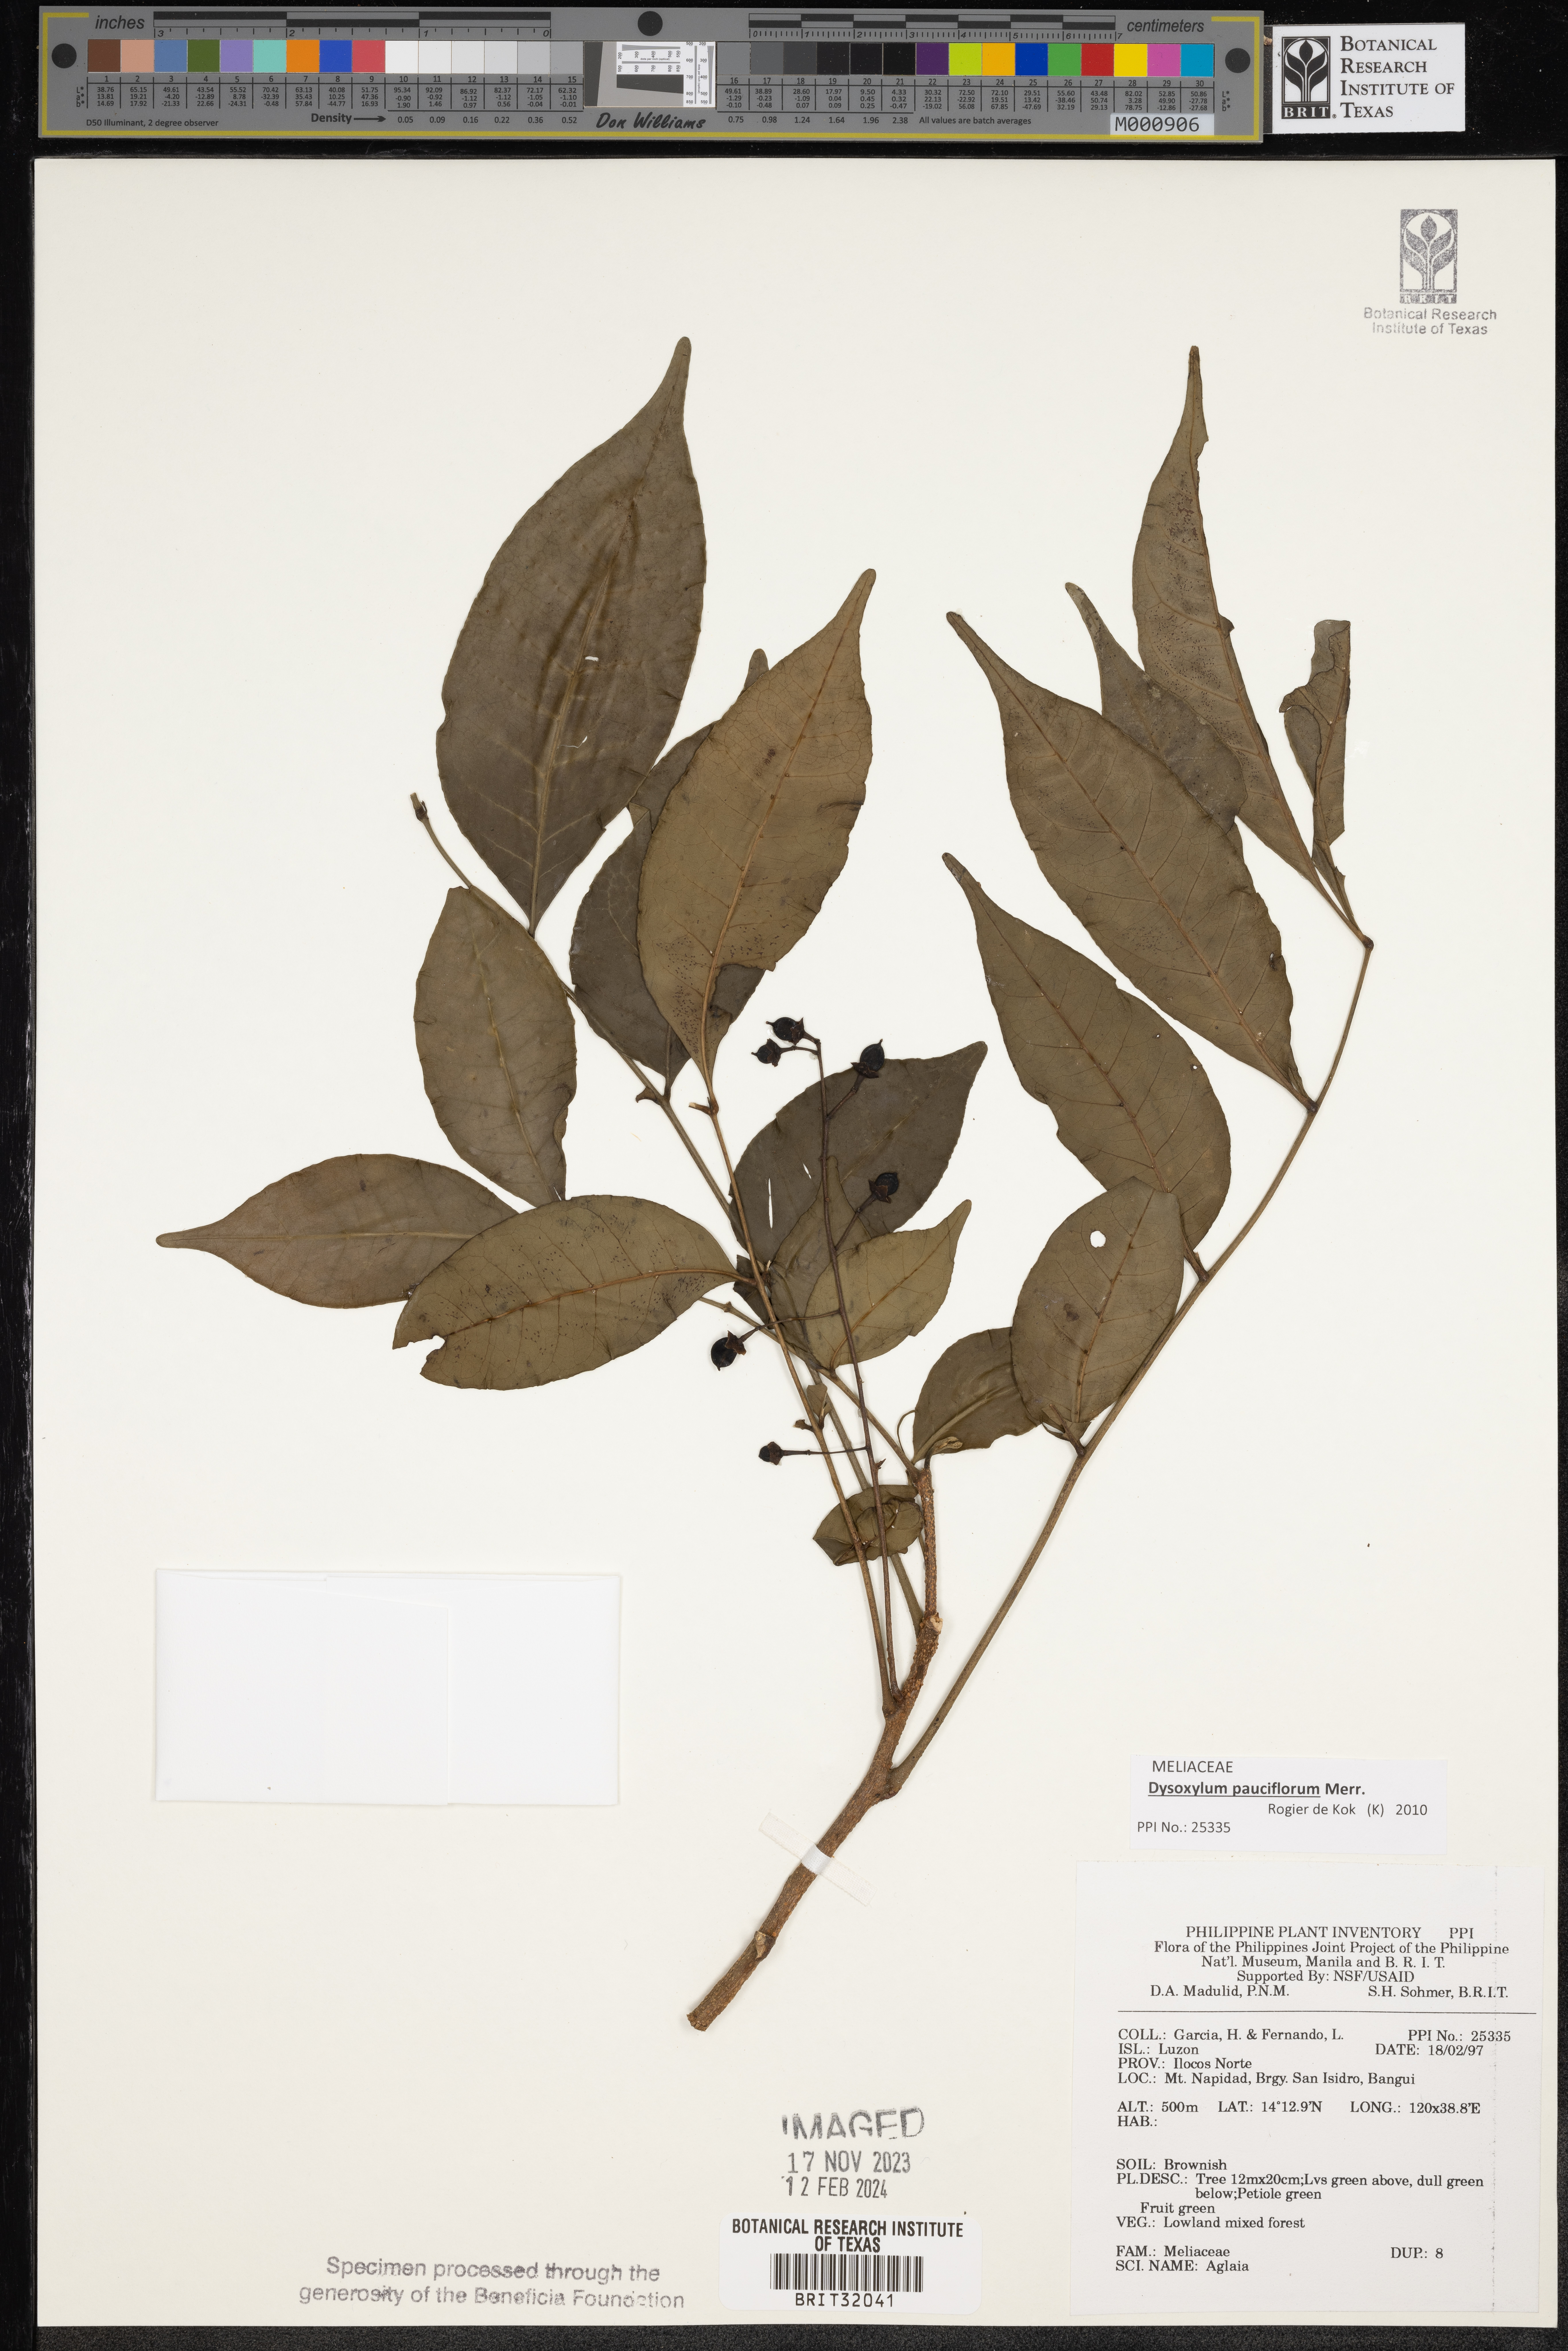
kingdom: Plantae
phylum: Tracheophyta
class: Magnoliopsida
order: Sapindales
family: Meliaceae
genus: Aglaia
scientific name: Aglaia
